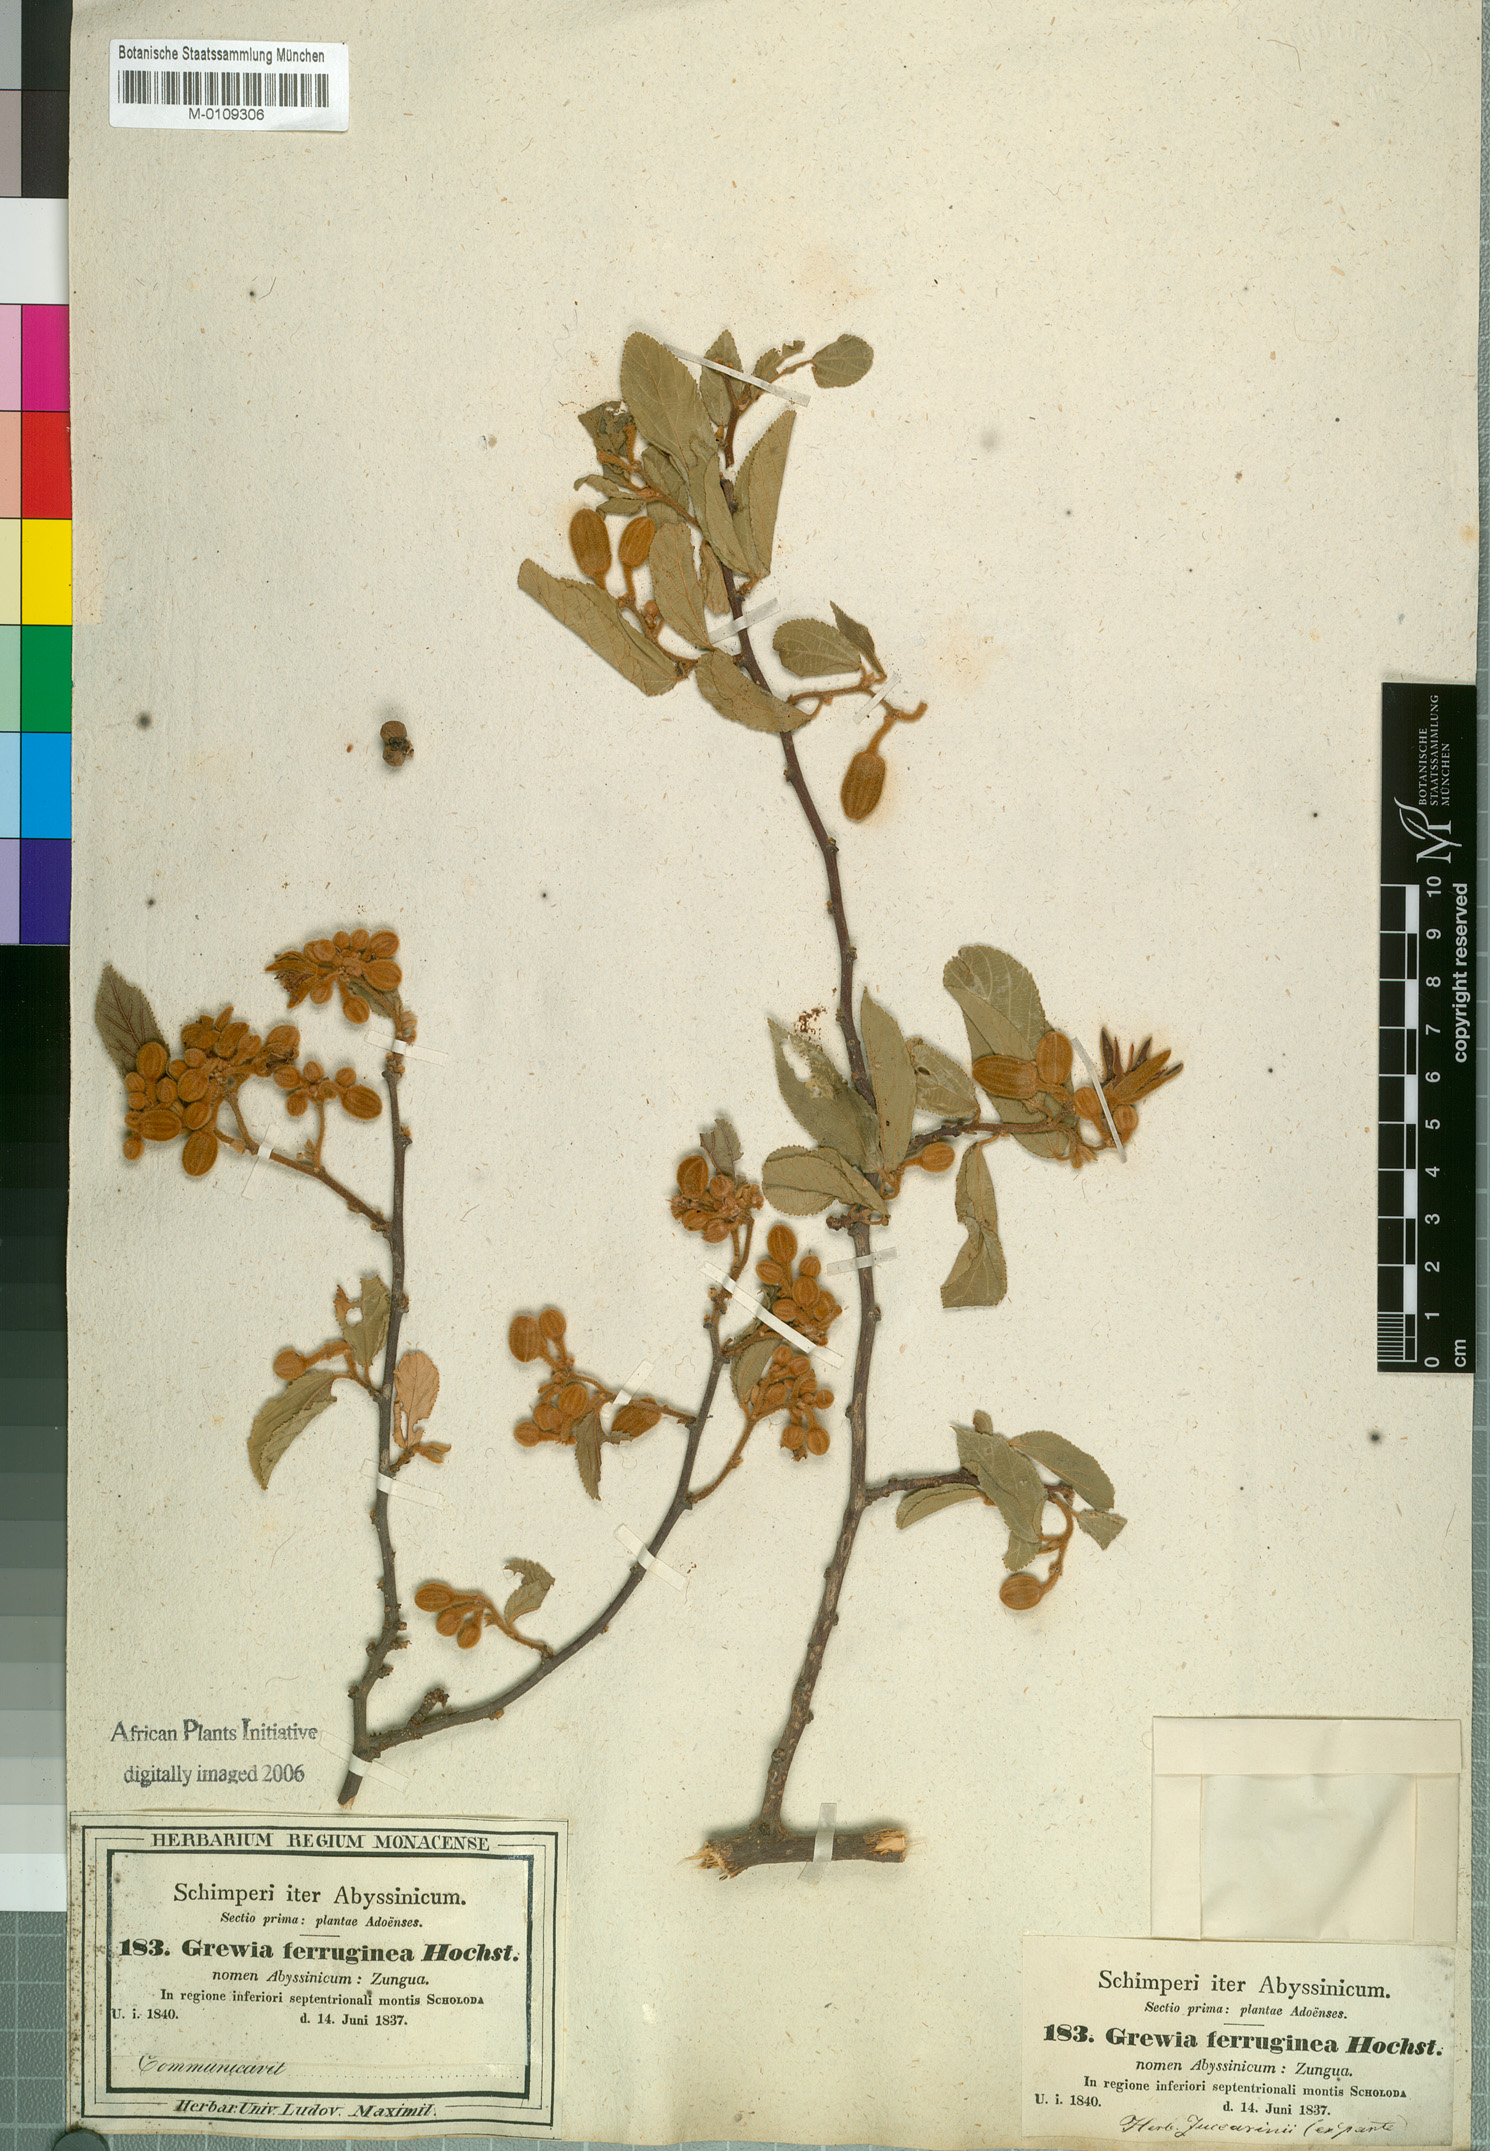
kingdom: Plantae
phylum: Tracheophyta
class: Magnoliopsida
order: Malvales
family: Malvaceae
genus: Grewia
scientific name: Grewia ferruginea
